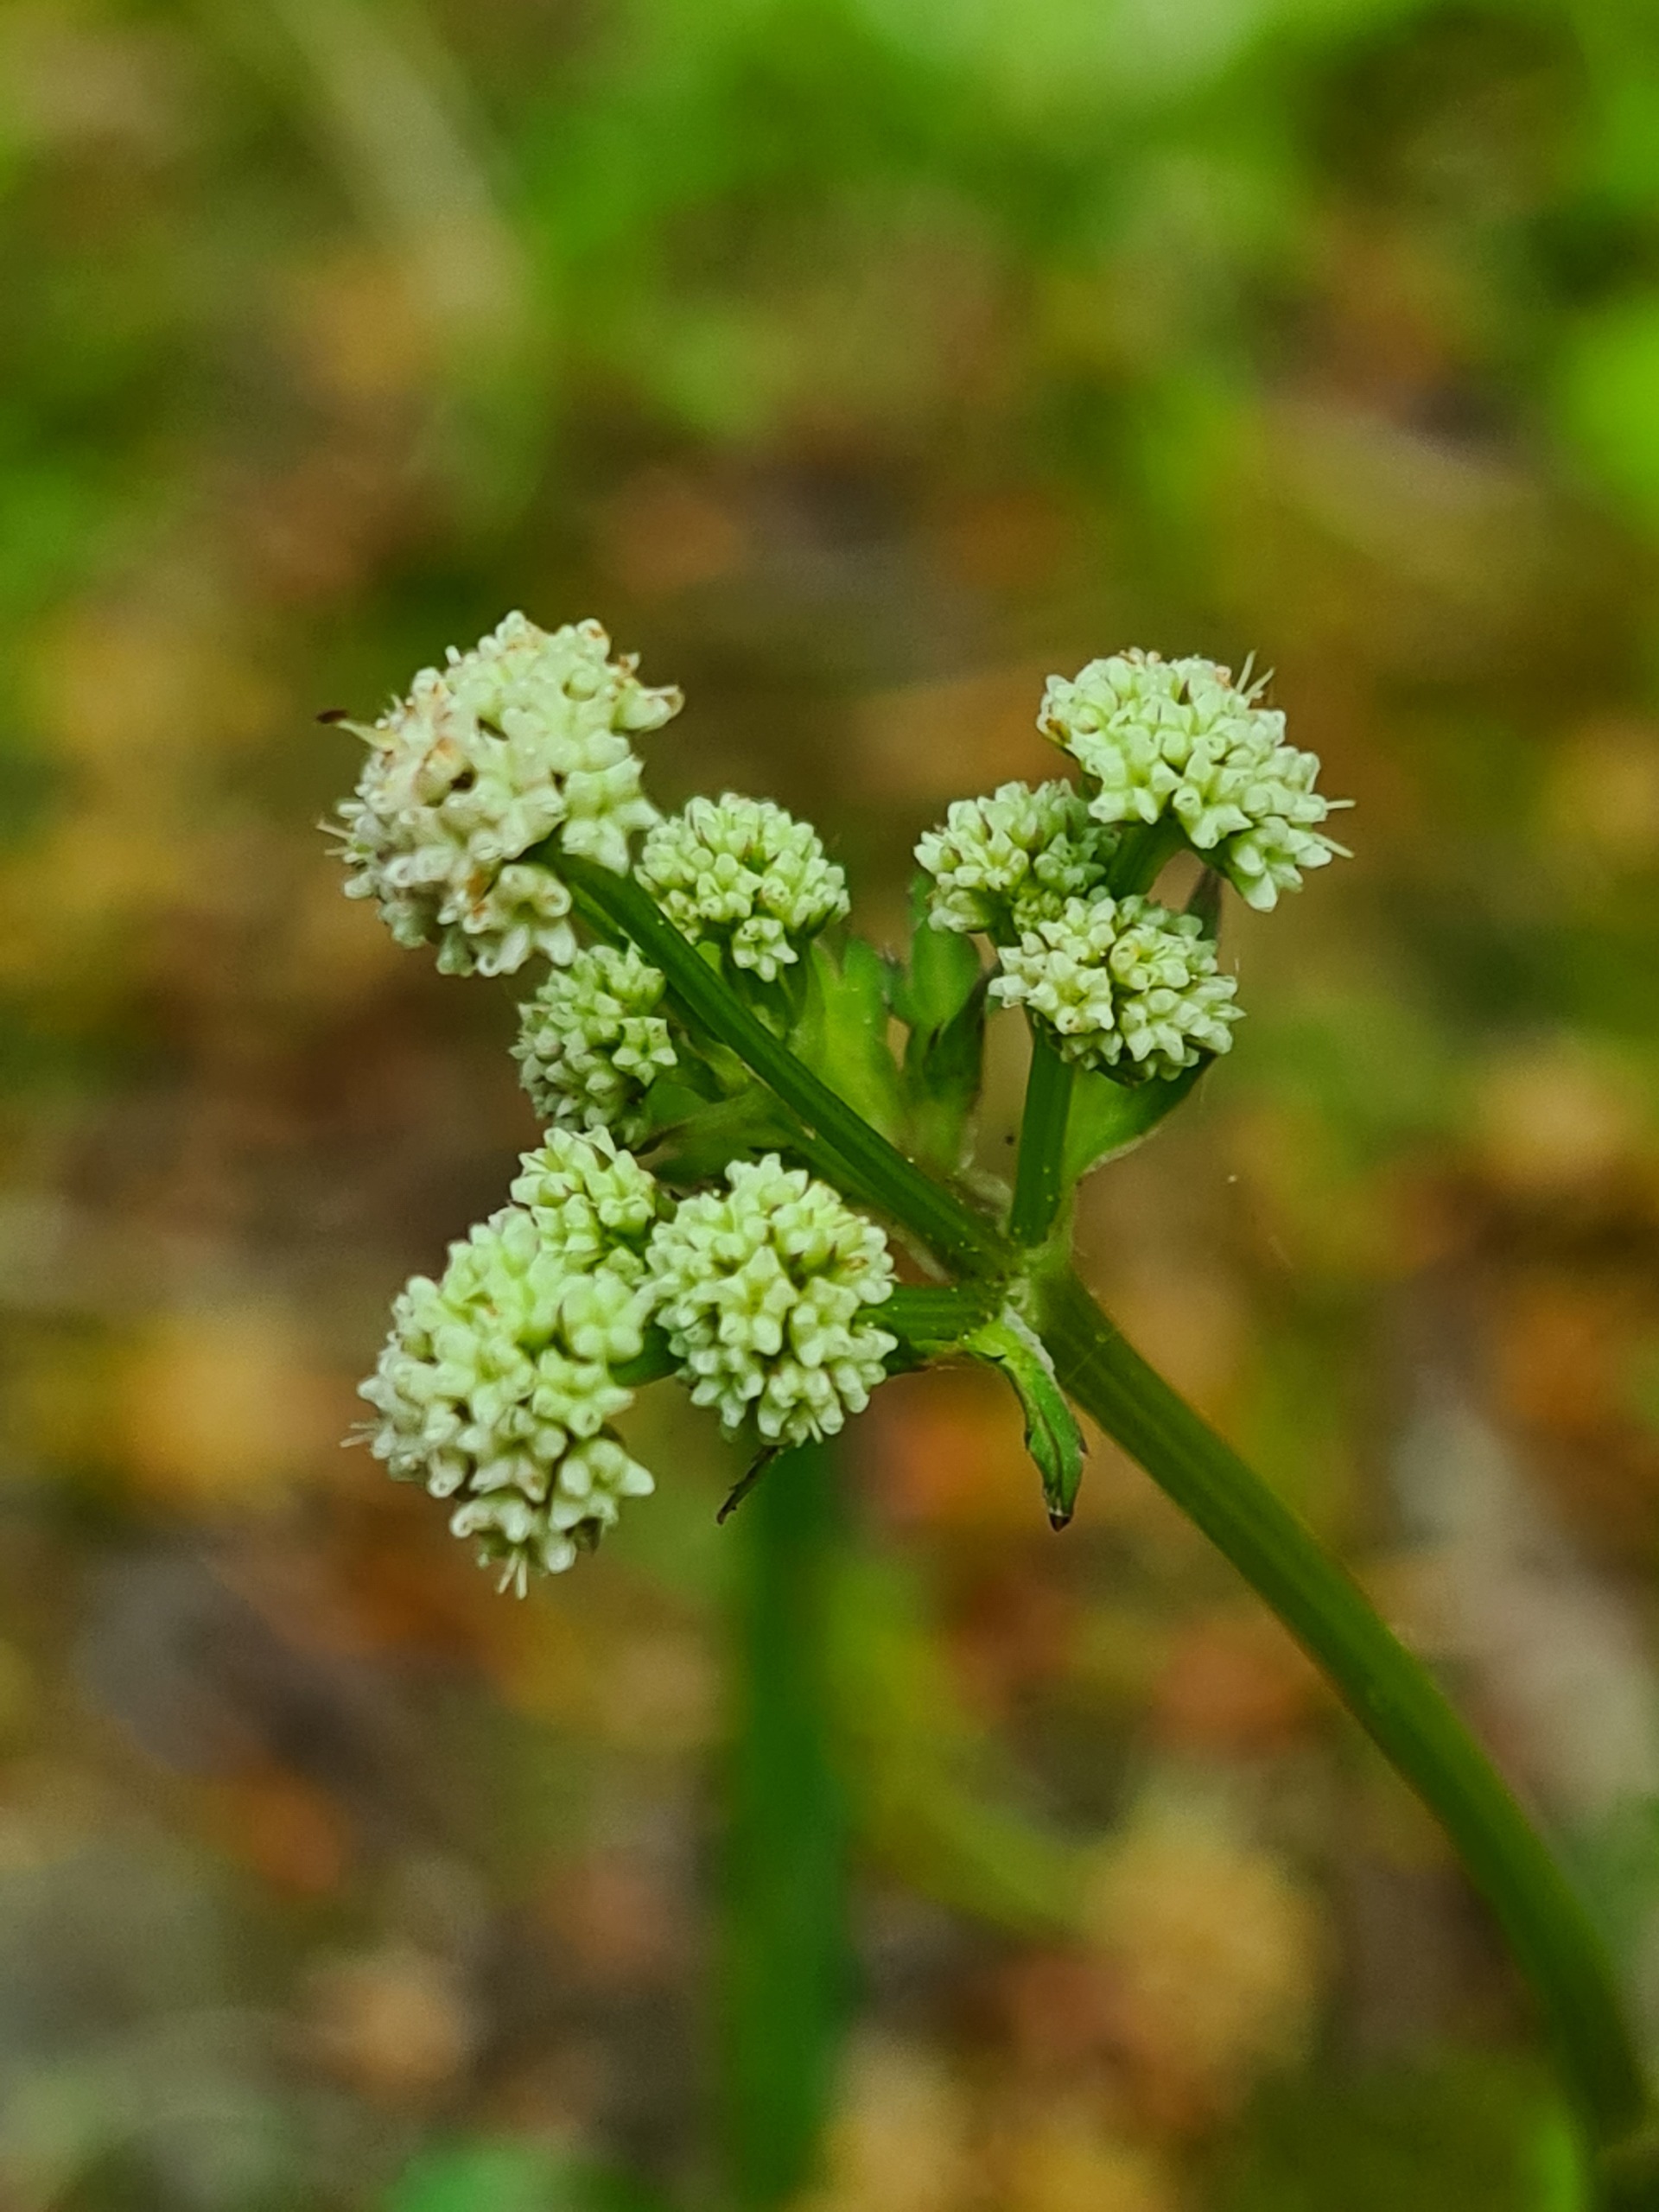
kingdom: Plantae
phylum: Tracheophyta
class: Magnoliopsida
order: Apiales
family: Apiaceae
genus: Sanicula
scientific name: Sanicula europaea
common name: Sanikel
